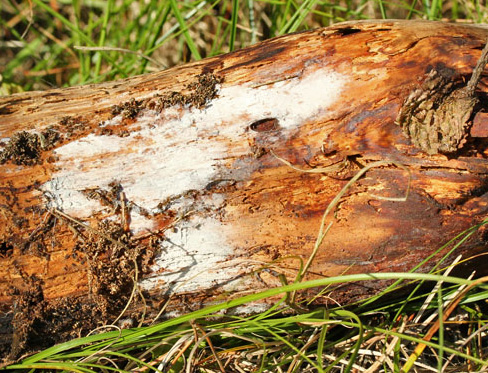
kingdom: Fungi
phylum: Basidiomycota
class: Agaricomycetes
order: Trechisporales
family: Sistotremataceae
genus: Trechispora
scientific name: Trechispora farinacea
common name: pigget vathinde
